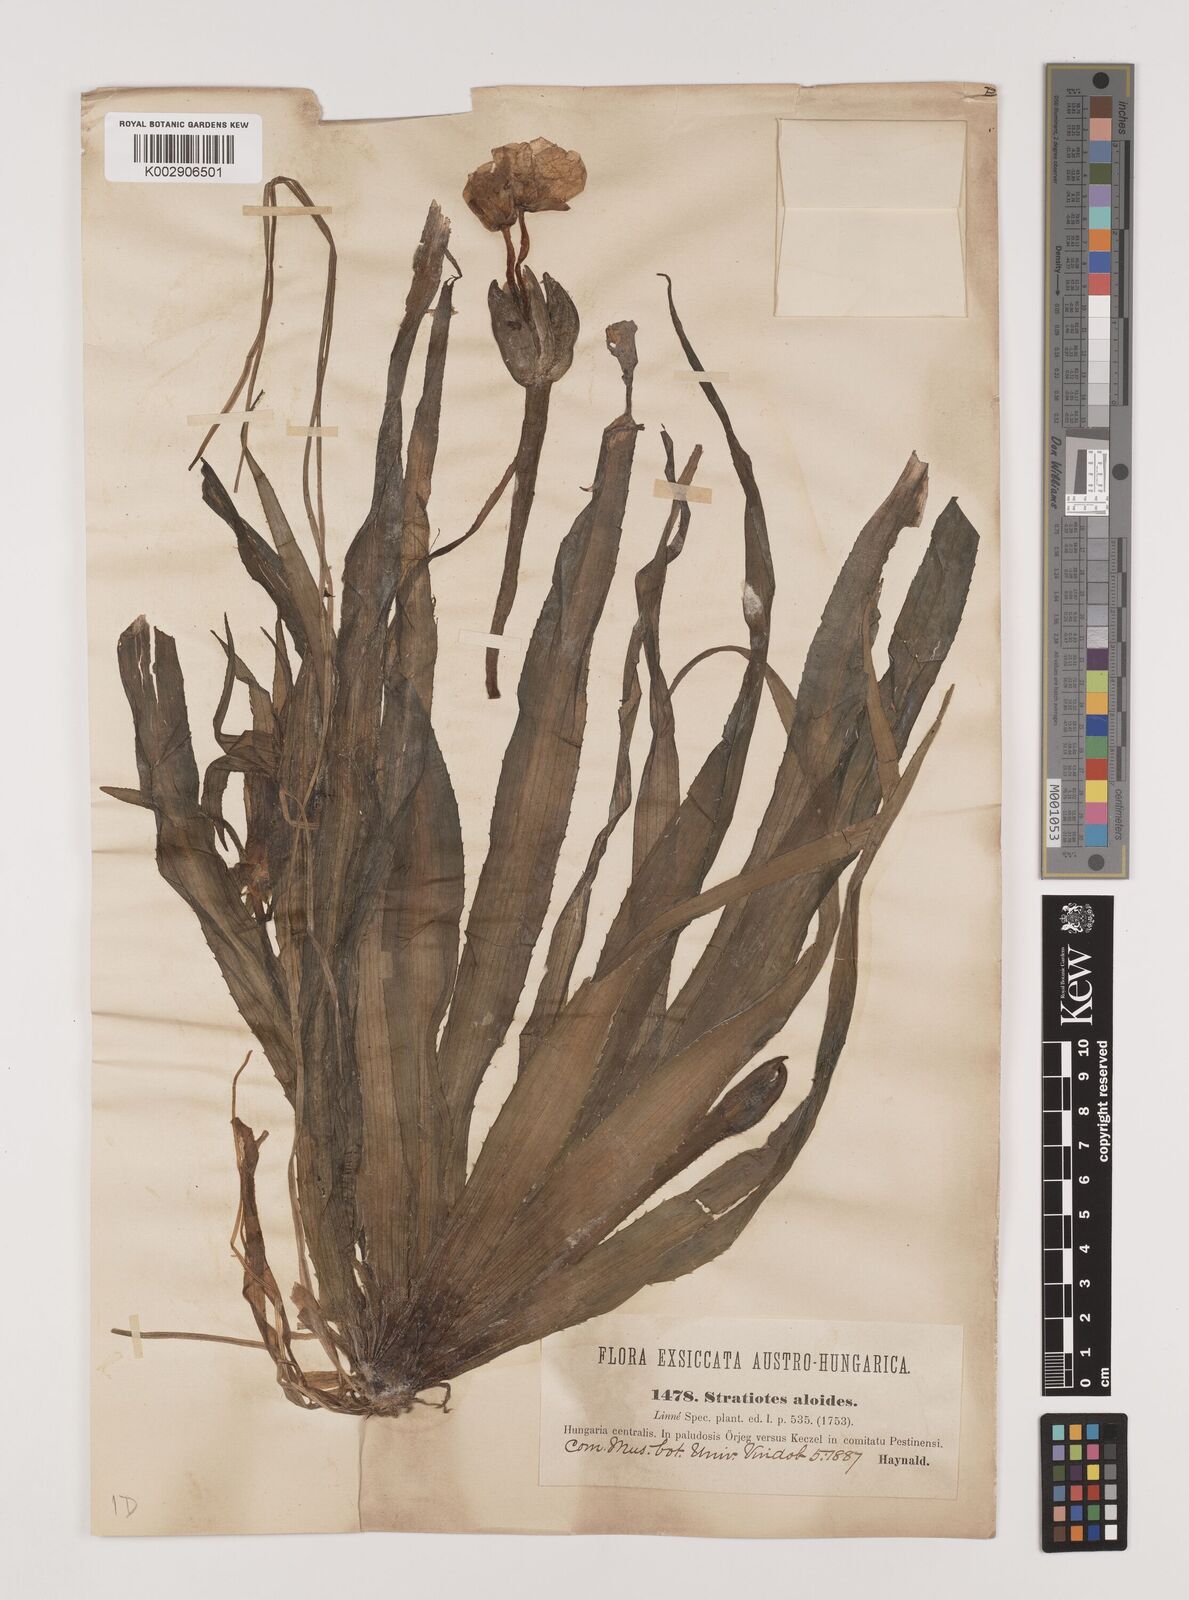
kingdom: Plantae
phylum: Tracheophyta
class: Liliopsida
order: Alismatales
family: Hydrocharitaceae
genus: Stratiotes
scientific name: Stratiotes aloides
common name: Water-soldier
